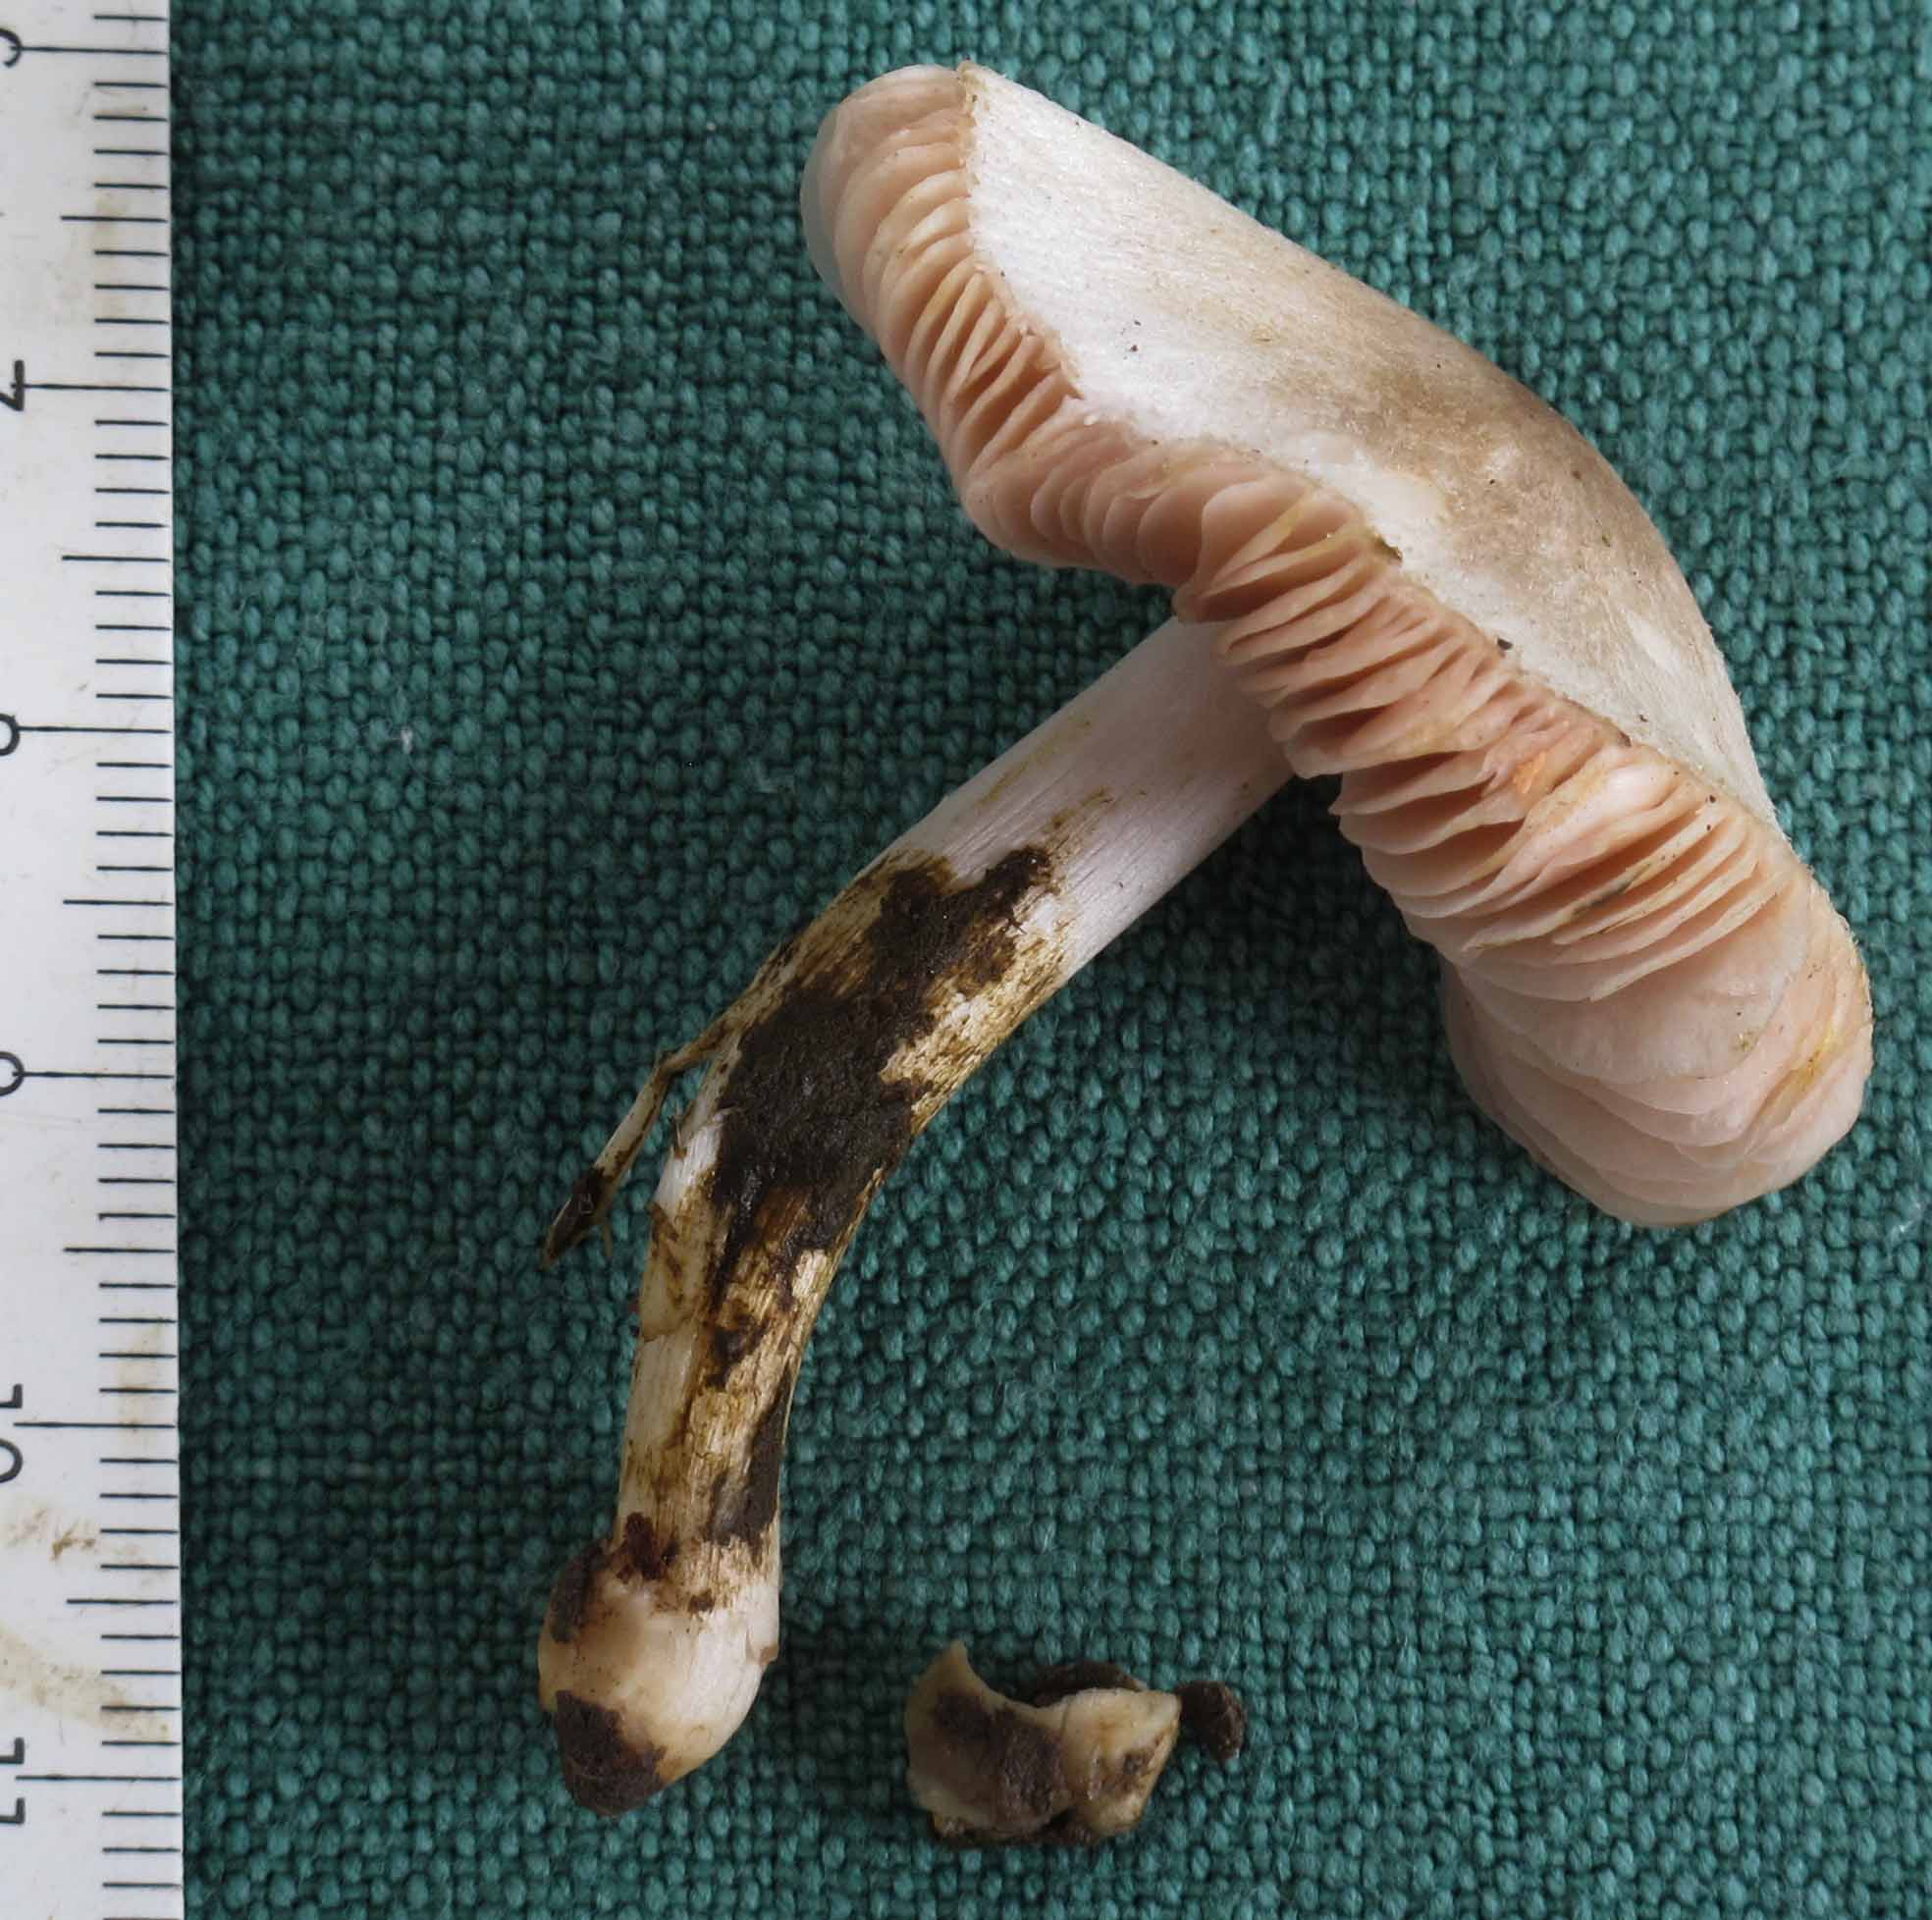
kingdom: Fungi
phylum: Basidiomycota
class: Agaricomycetes
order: Agaricales
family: Pluteaceae
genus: Volvariella
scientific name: Volvariella murinella
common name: musegrå posesvamp
